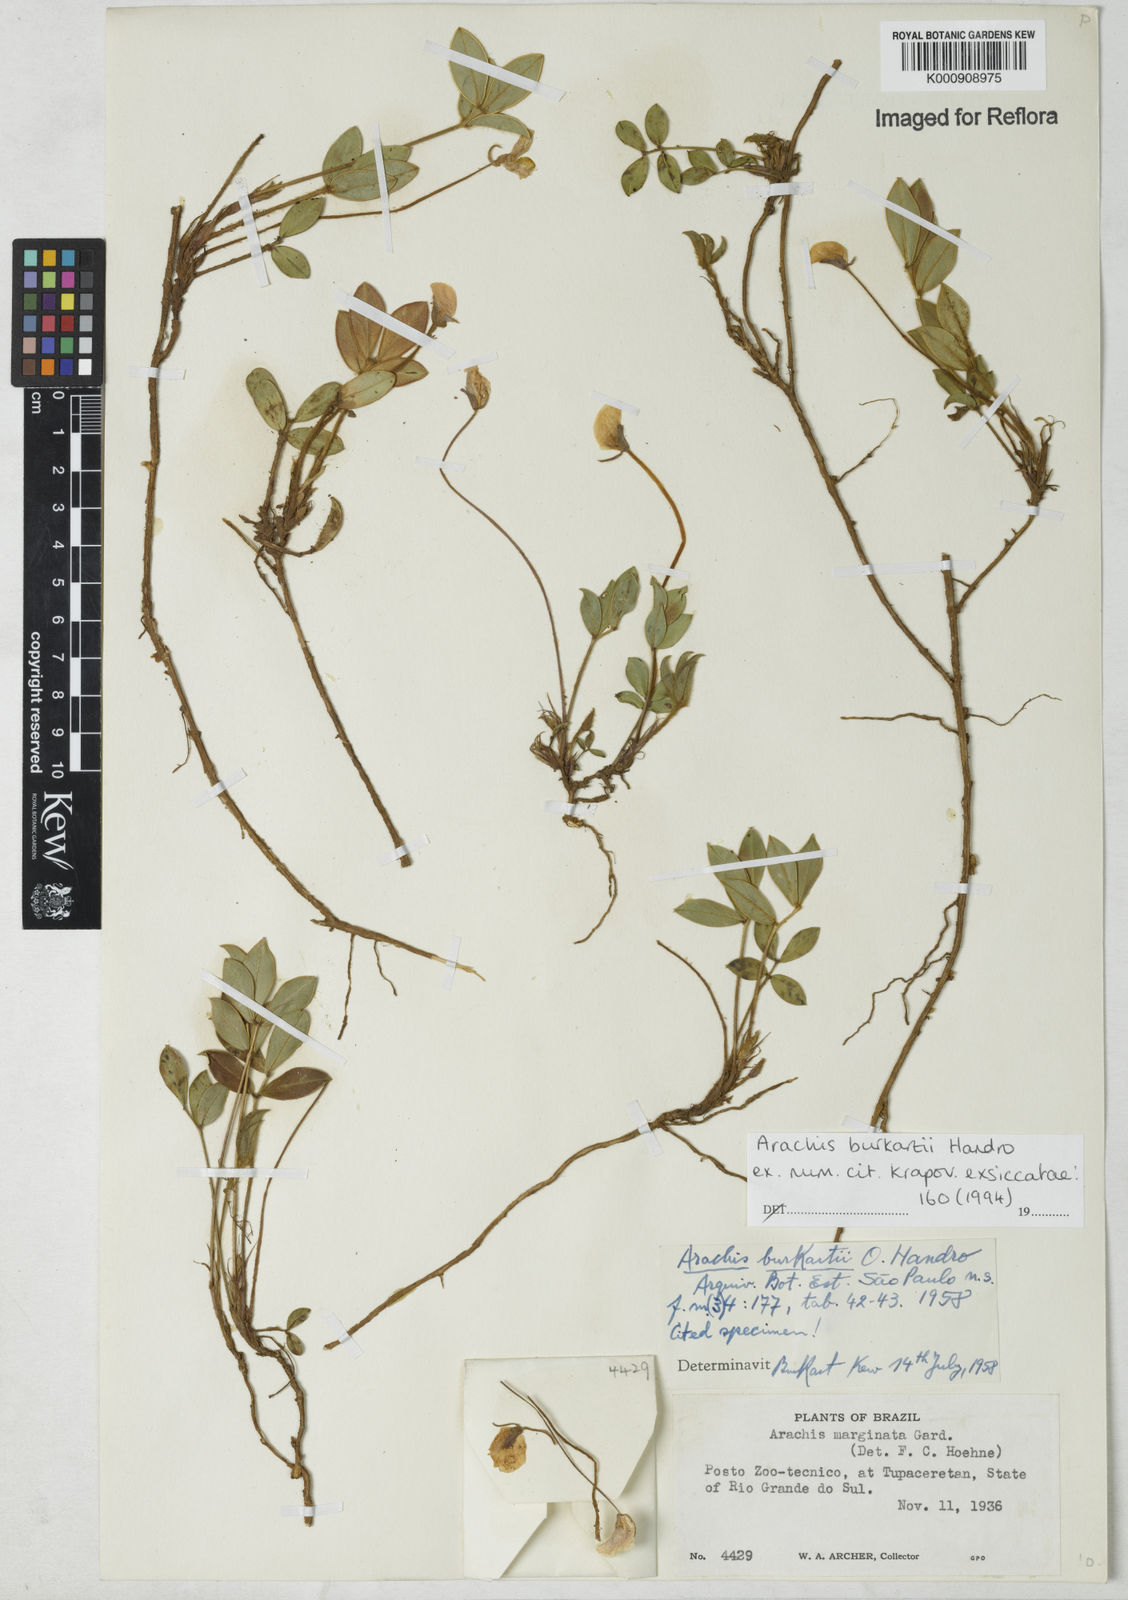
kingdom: Plantae
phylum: Tracheophyta
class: Magnoliopsida
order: Fabales
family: Fabaceae
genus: Arachis
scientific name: Arachis burkartii
